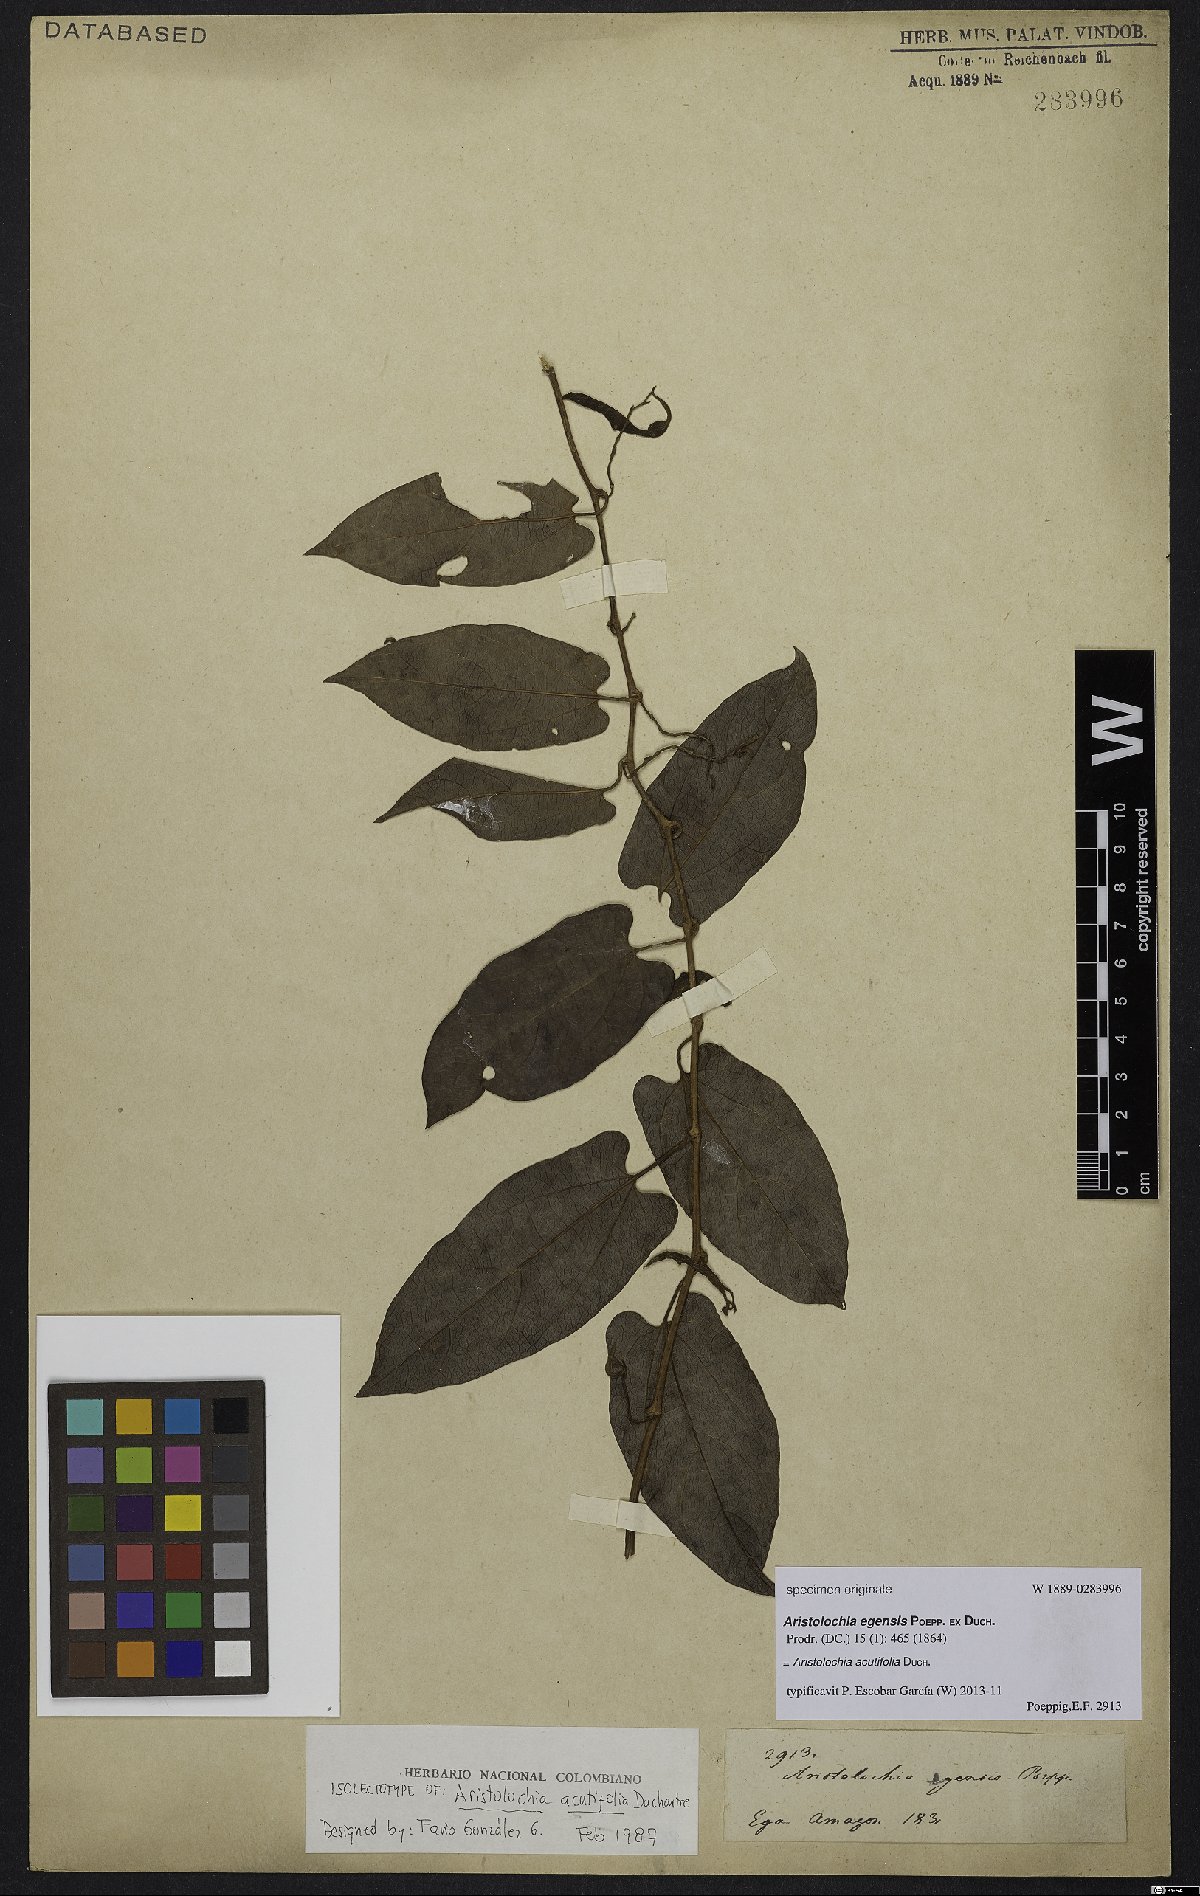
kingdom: Plantae
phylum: Tracheophyta
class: Magnoliopsida
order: Piperales
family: Aristolochiaceae
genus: Aristolochia
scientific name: Aristolochia acutifolia
